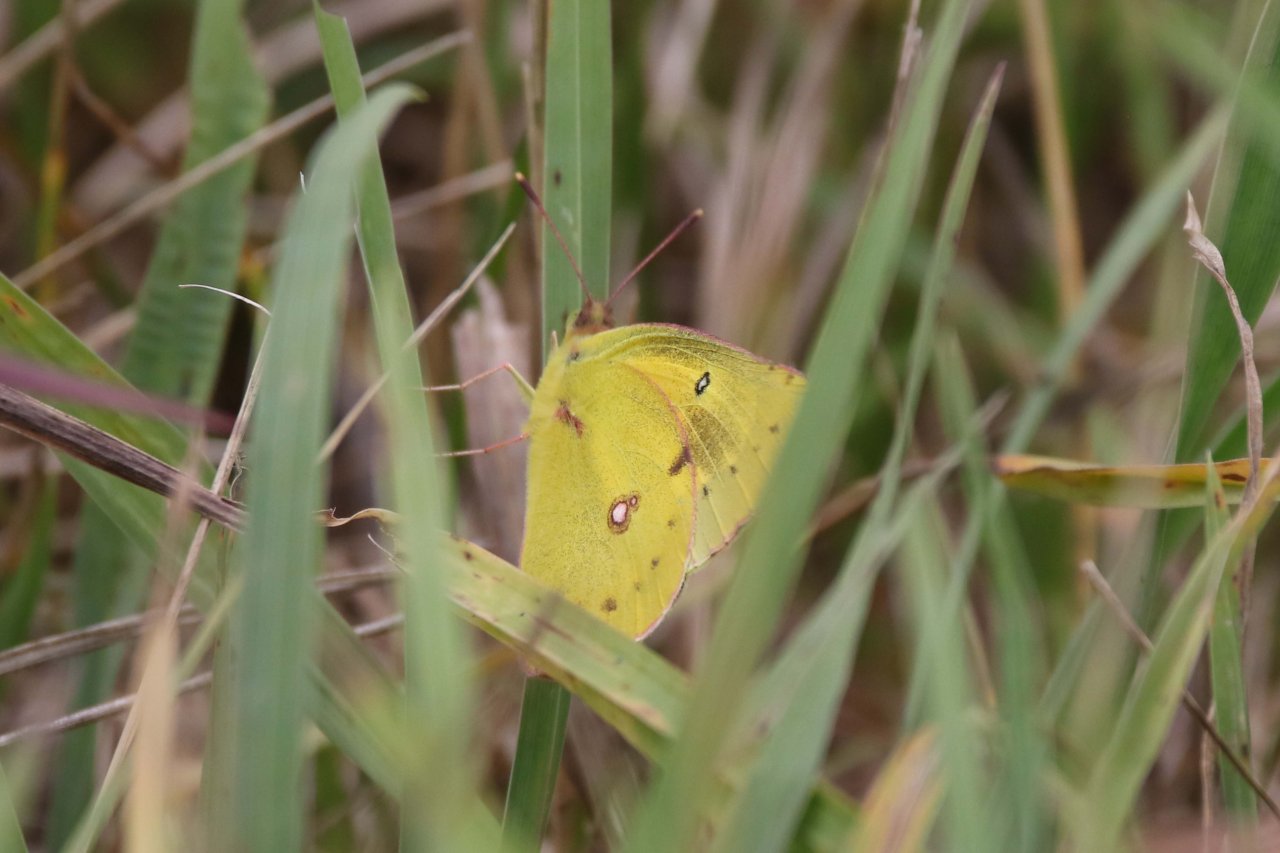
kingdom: Animalia
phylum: Arthropoda
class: Insecta
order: Lepidoptera
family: Pieridae
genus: Colias
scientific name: Colias
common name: Clouded Yellows
